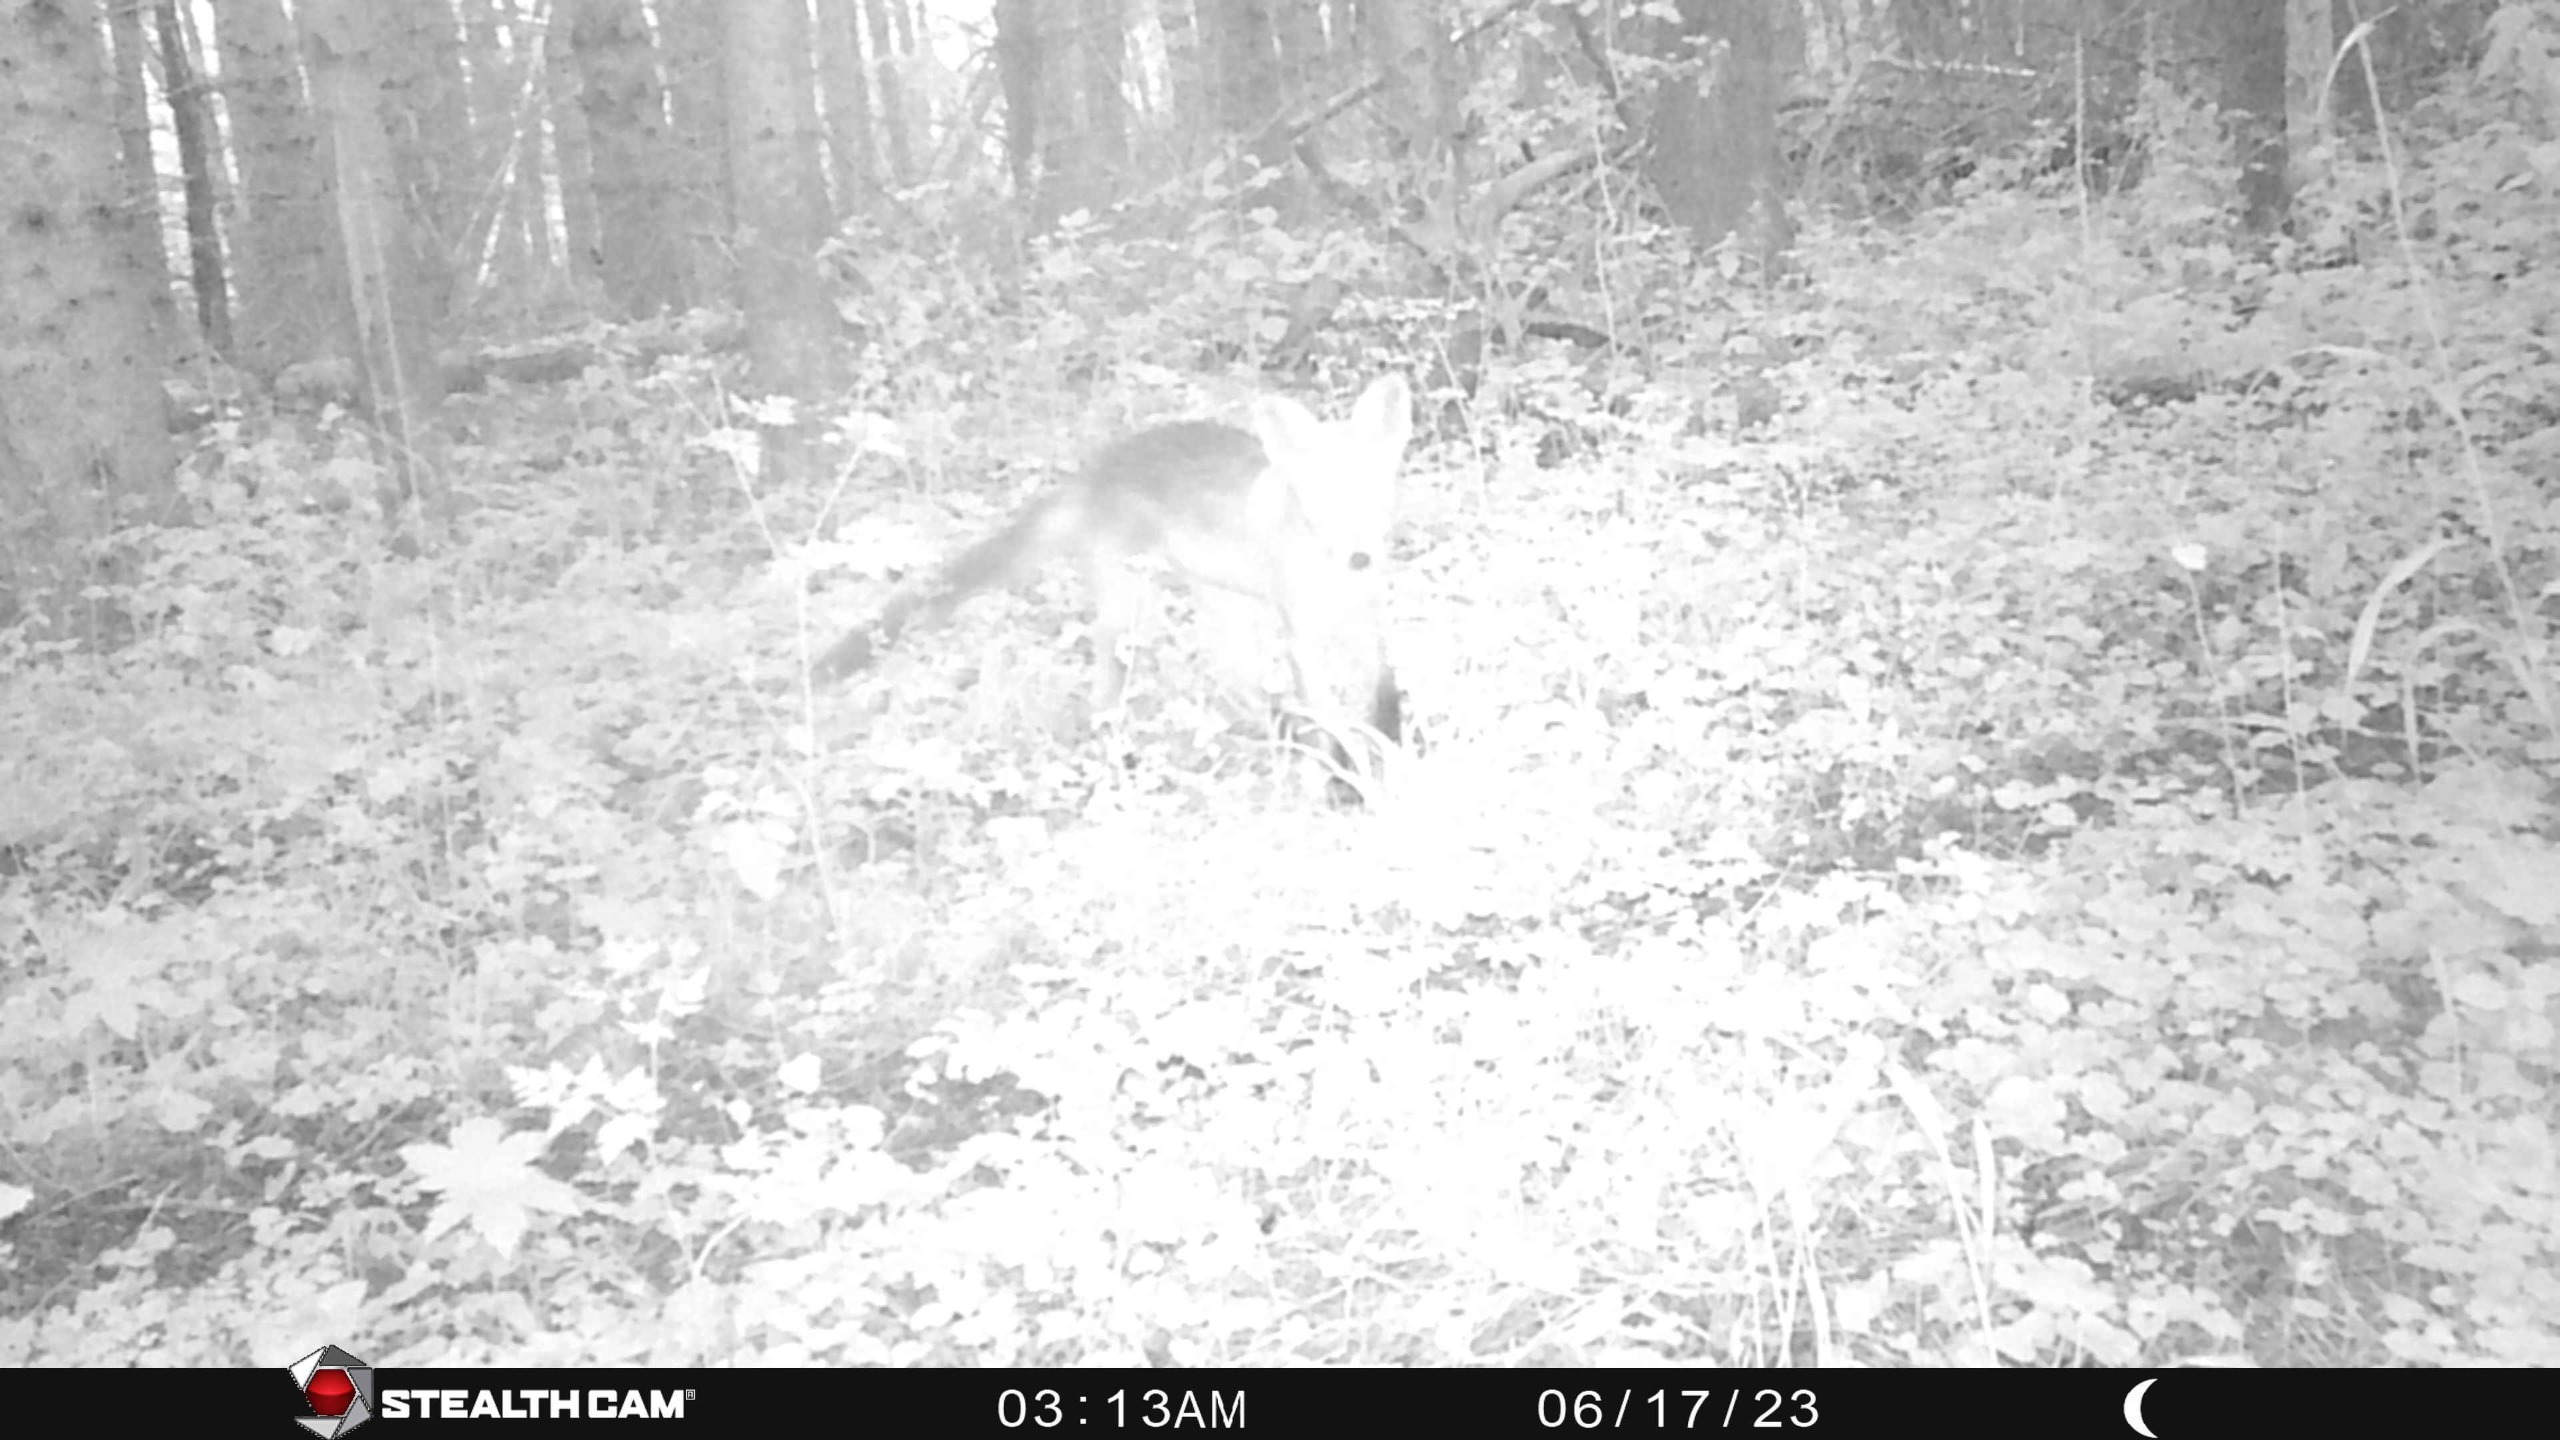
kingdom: Animalia
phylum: Chordata
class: Mammalia
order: Carnivora
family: Canidae
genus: Vulpes
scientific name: Vulpes vulpes
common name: Ræv
